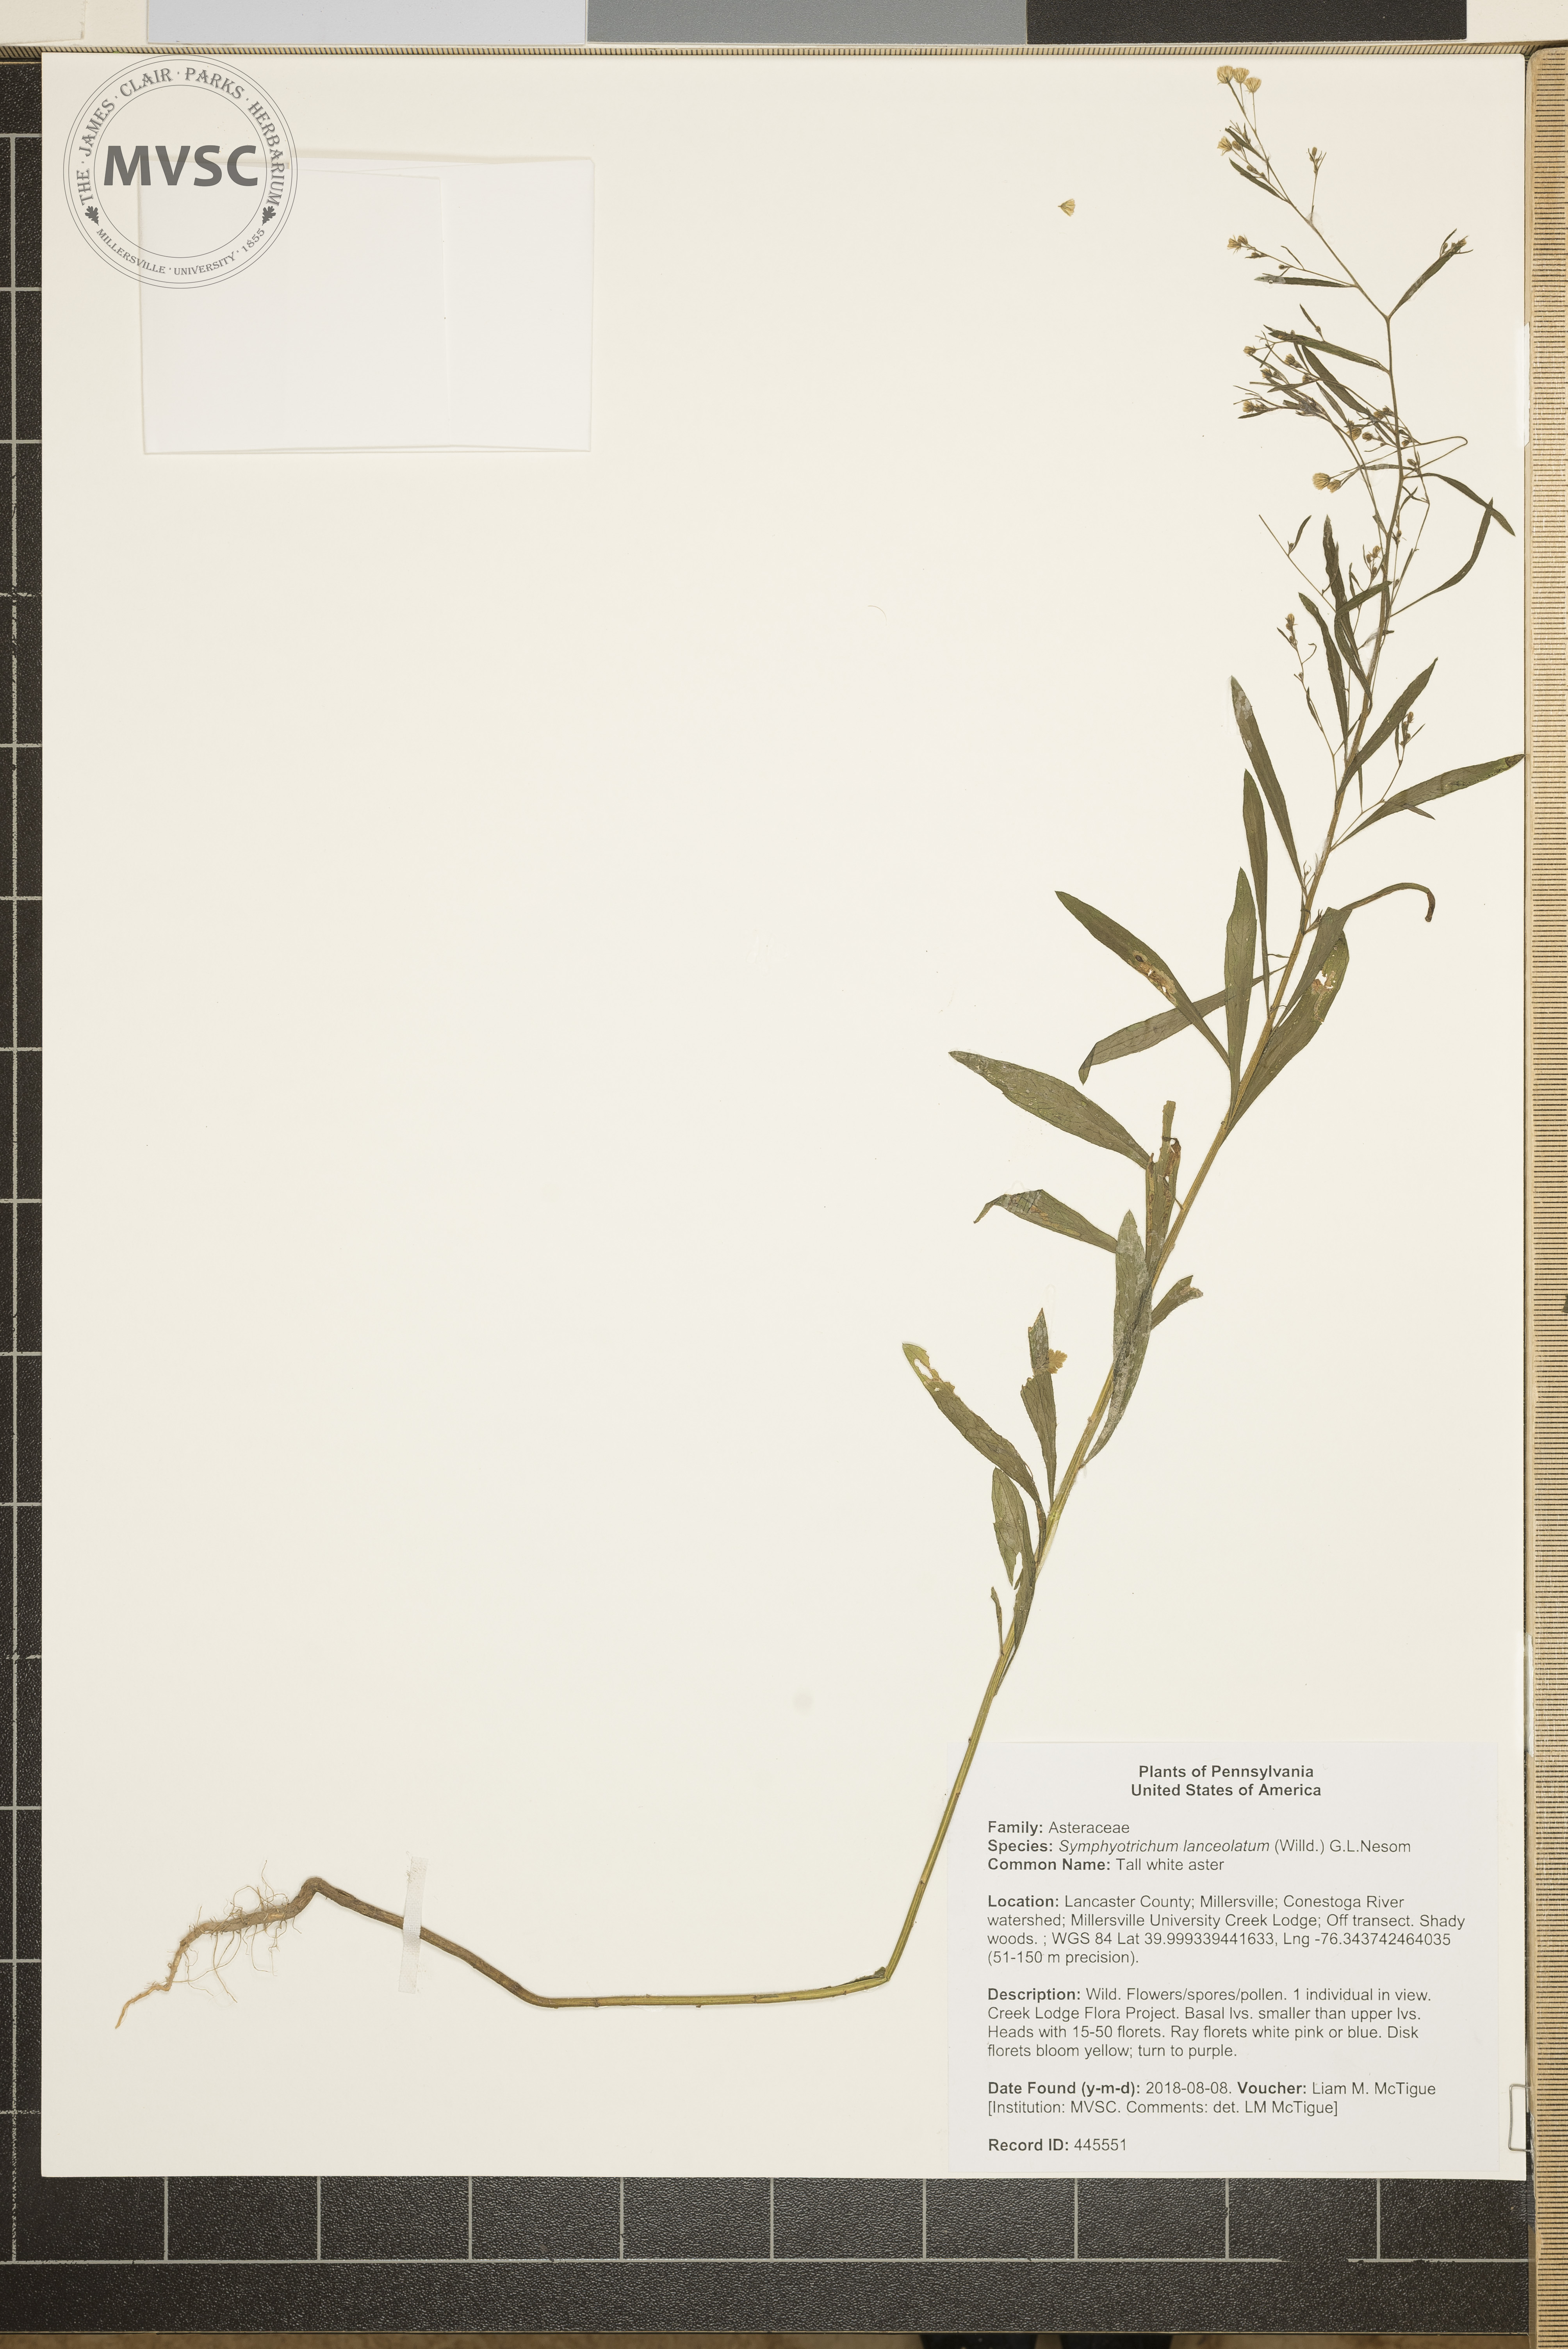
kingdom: Plantae
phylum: Tracheophyta
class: Magnoliopsida
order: Asterales
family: Asteraceae
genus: Symphyotrichum
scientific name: Symphyotrichum lanceolatum
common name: Tall white aster
